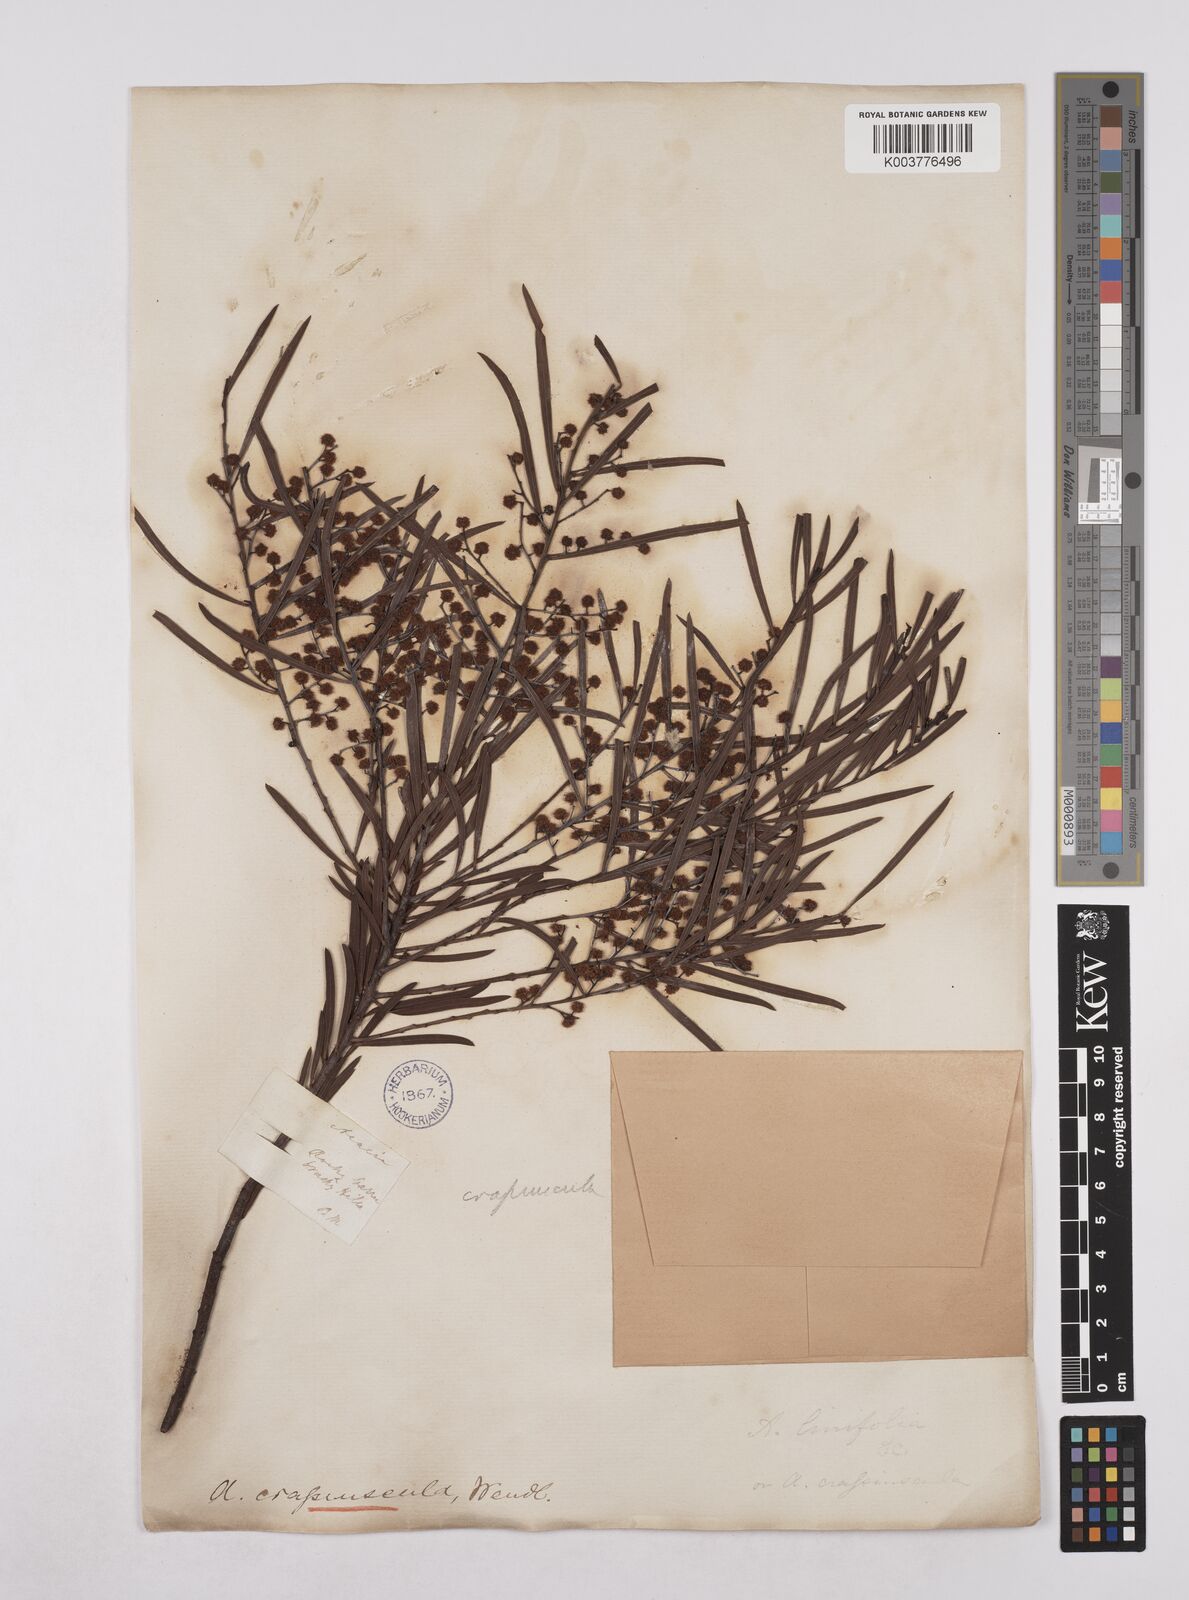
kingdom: Plantae
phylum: Tracheophyta
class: Magnoliopsida
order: Fabales
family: Fabaceae
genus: Acacia
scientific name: Acacia flocktoniae
